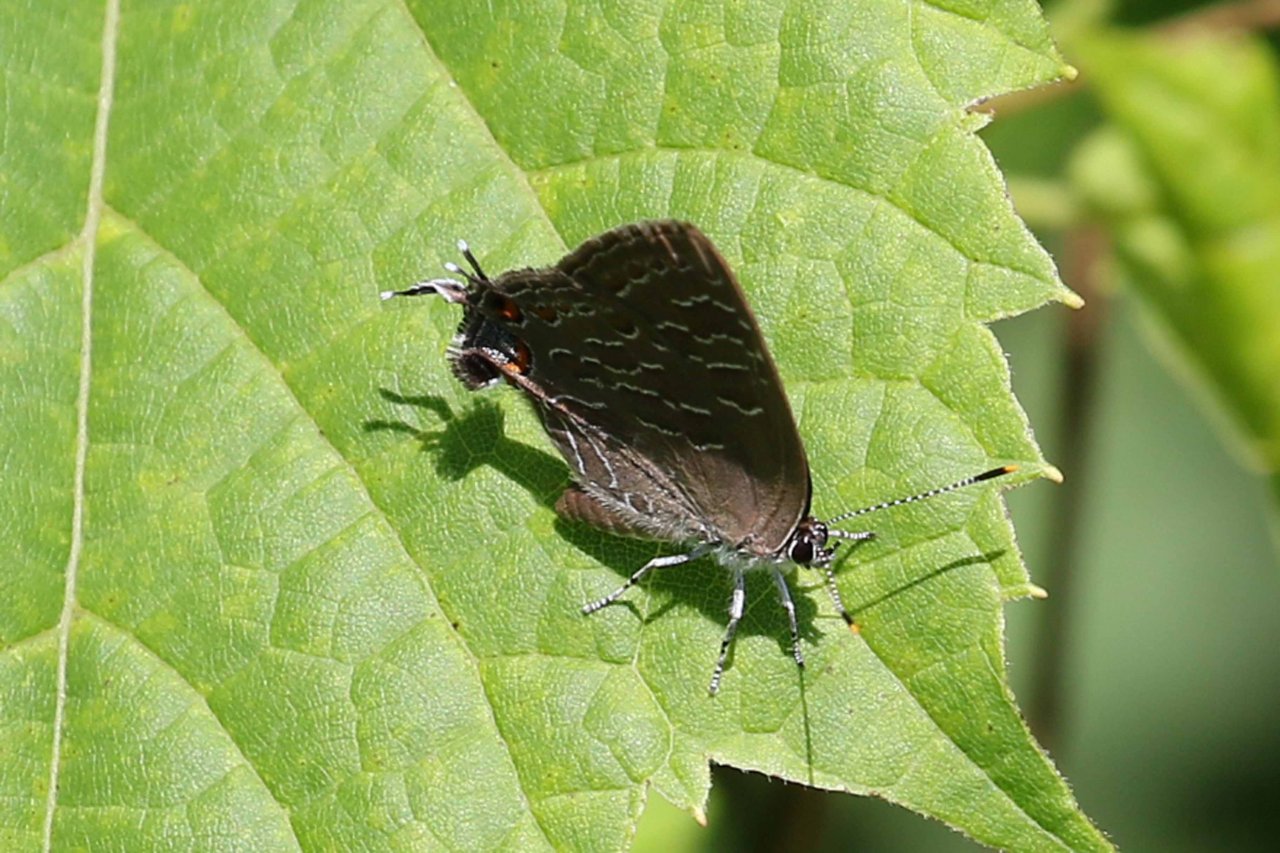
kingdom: Animalia
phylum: Arthropoda
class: Insecta
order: Lepidoptera
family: Lycaenidae
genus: Satyrium
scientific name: Satyrium liparops
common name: Striped Hairstreak
